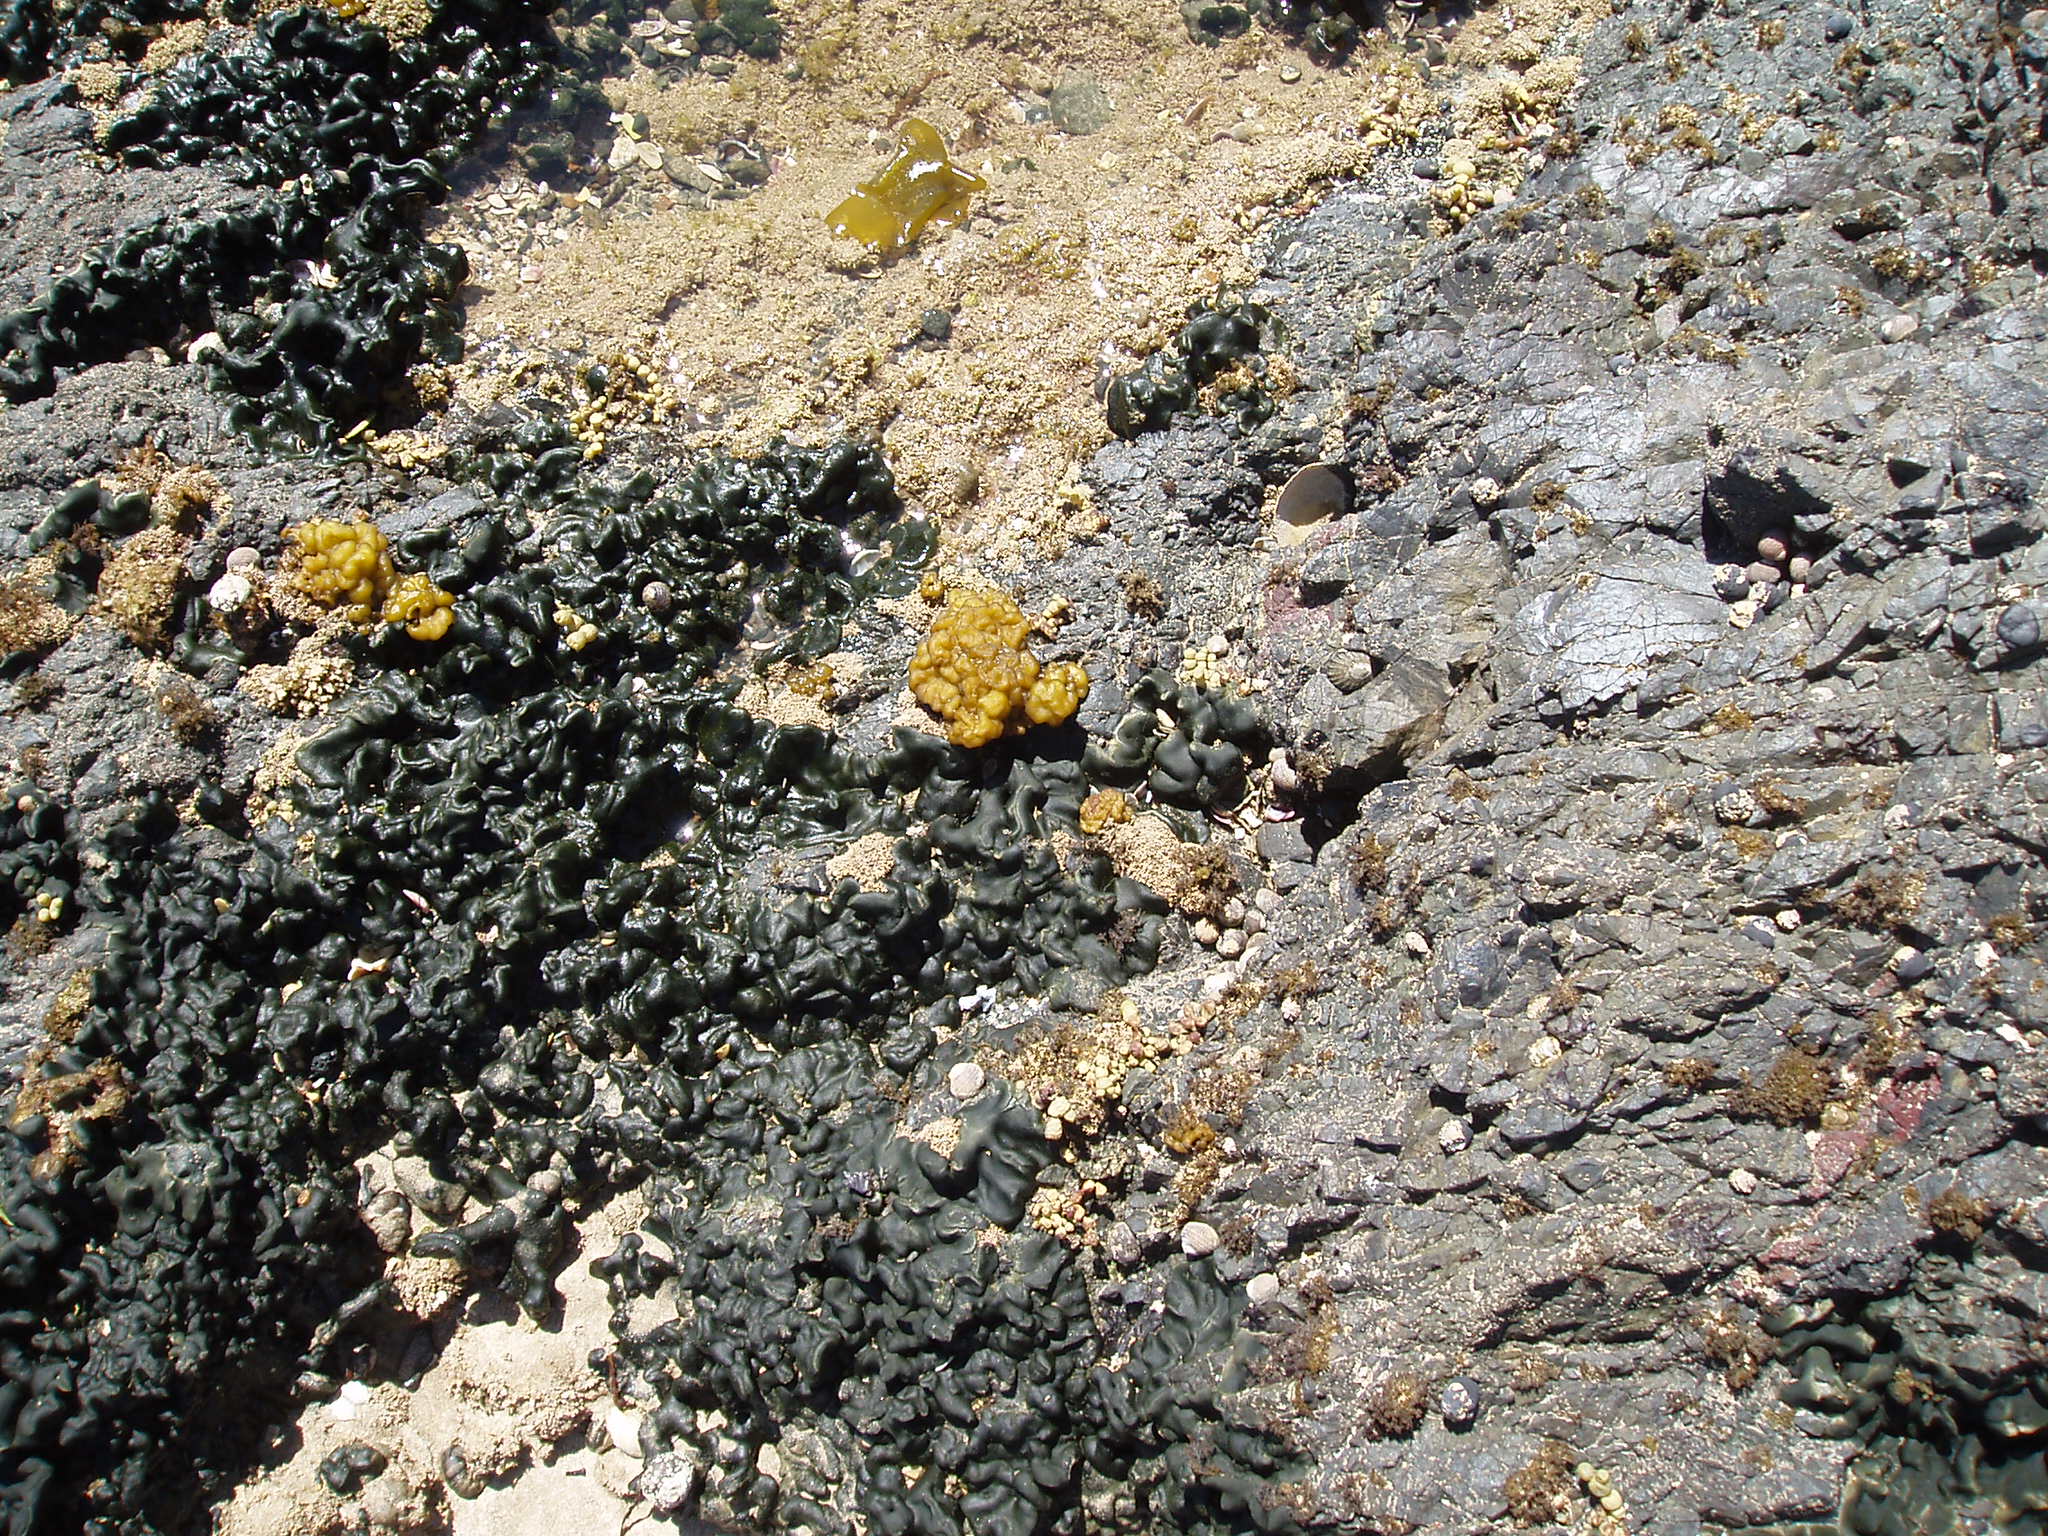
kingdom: Chromista
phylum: Ochrophyta
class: Phaeophyceae
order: Ectocarpales
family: Petrospongiaceae
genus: Petrospongium
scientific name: Petrospongium rugosum
